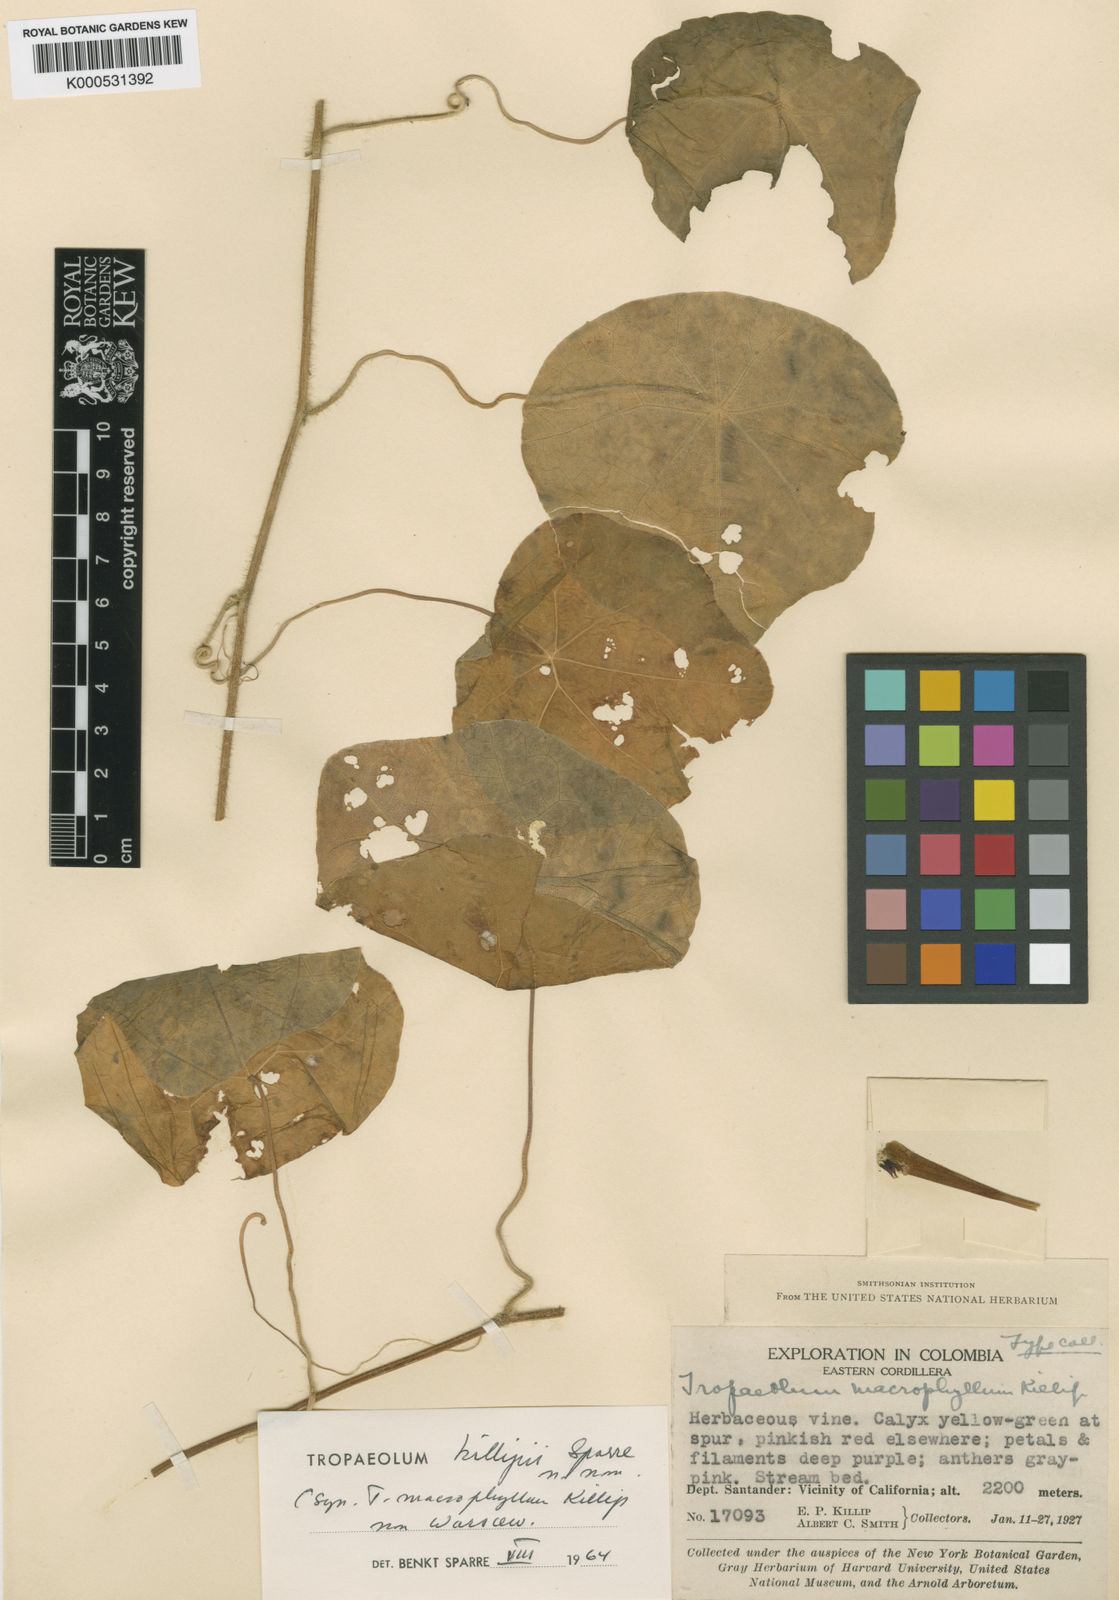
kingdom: Plantae
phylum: Tracheophyta
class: Magnoliopsida
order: Brassicales
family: Tropaeolaceae
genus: Tropaeolum
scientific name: Tropaeolum deckerianum
